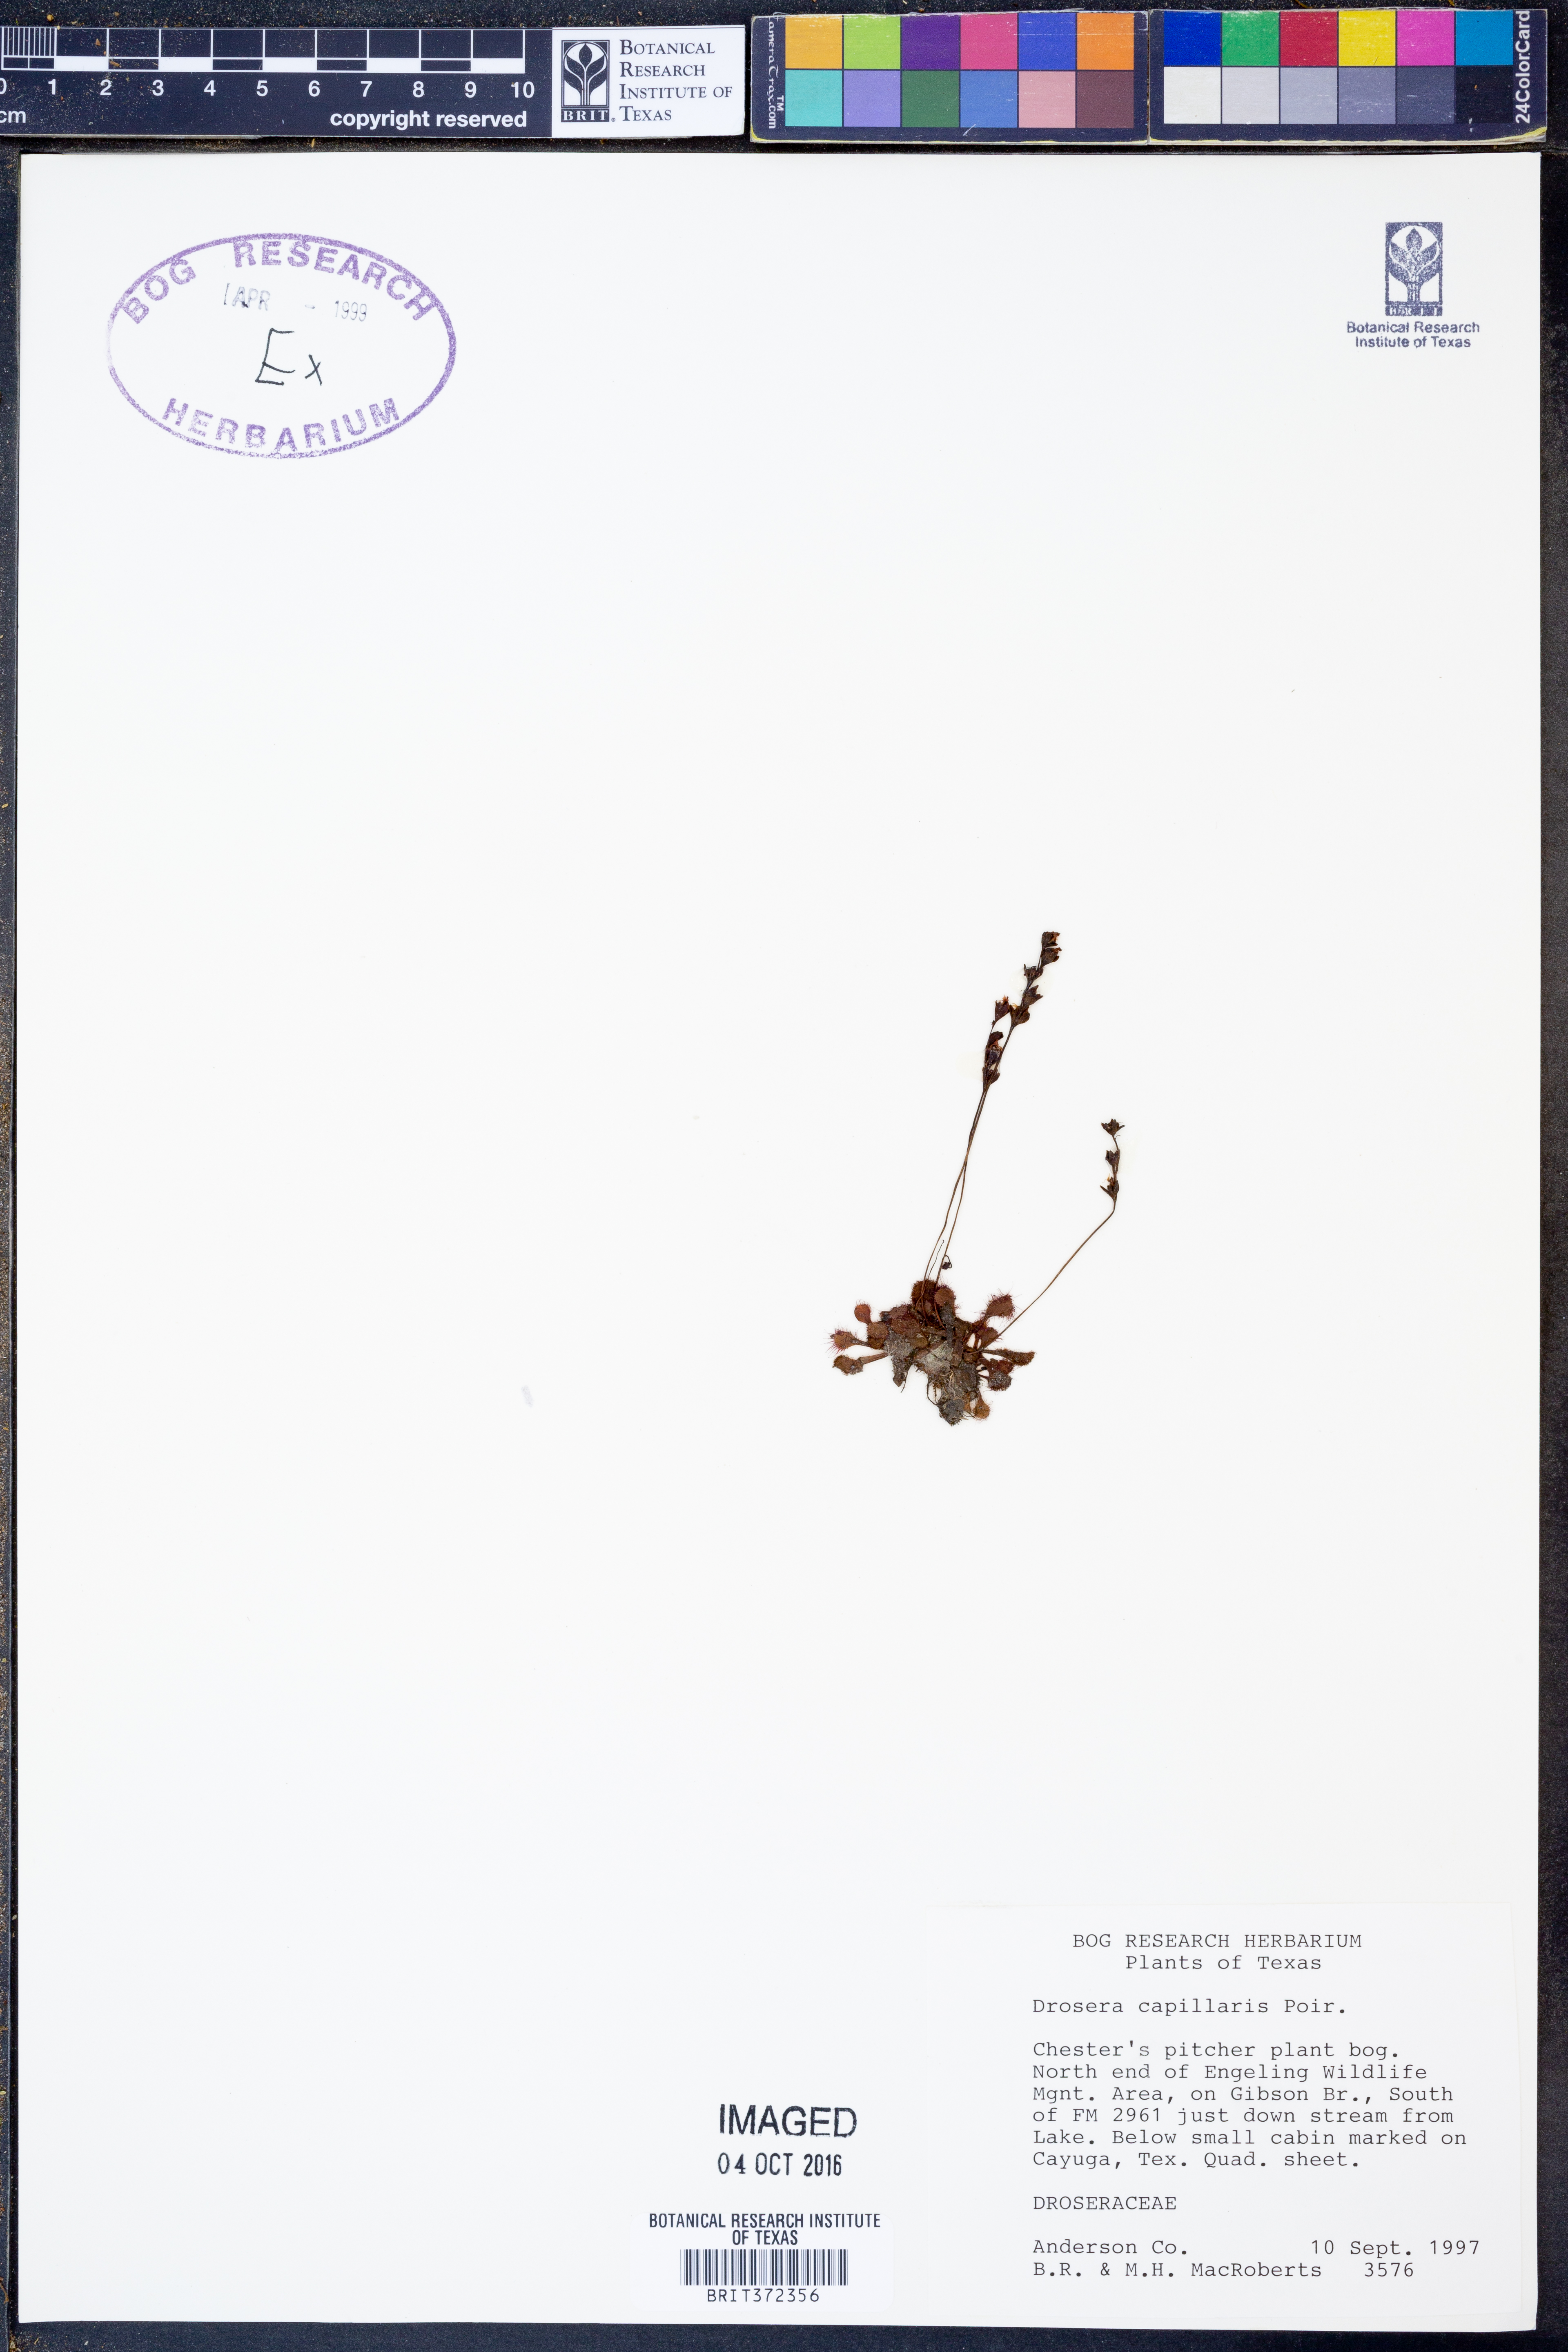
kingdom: Plantae
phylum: Tracheophyta
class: Magnoliopsida
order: Caryophyllales
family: Droseraceae
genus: Drosera
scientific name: Drosera capillaris
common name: Pink sundew
